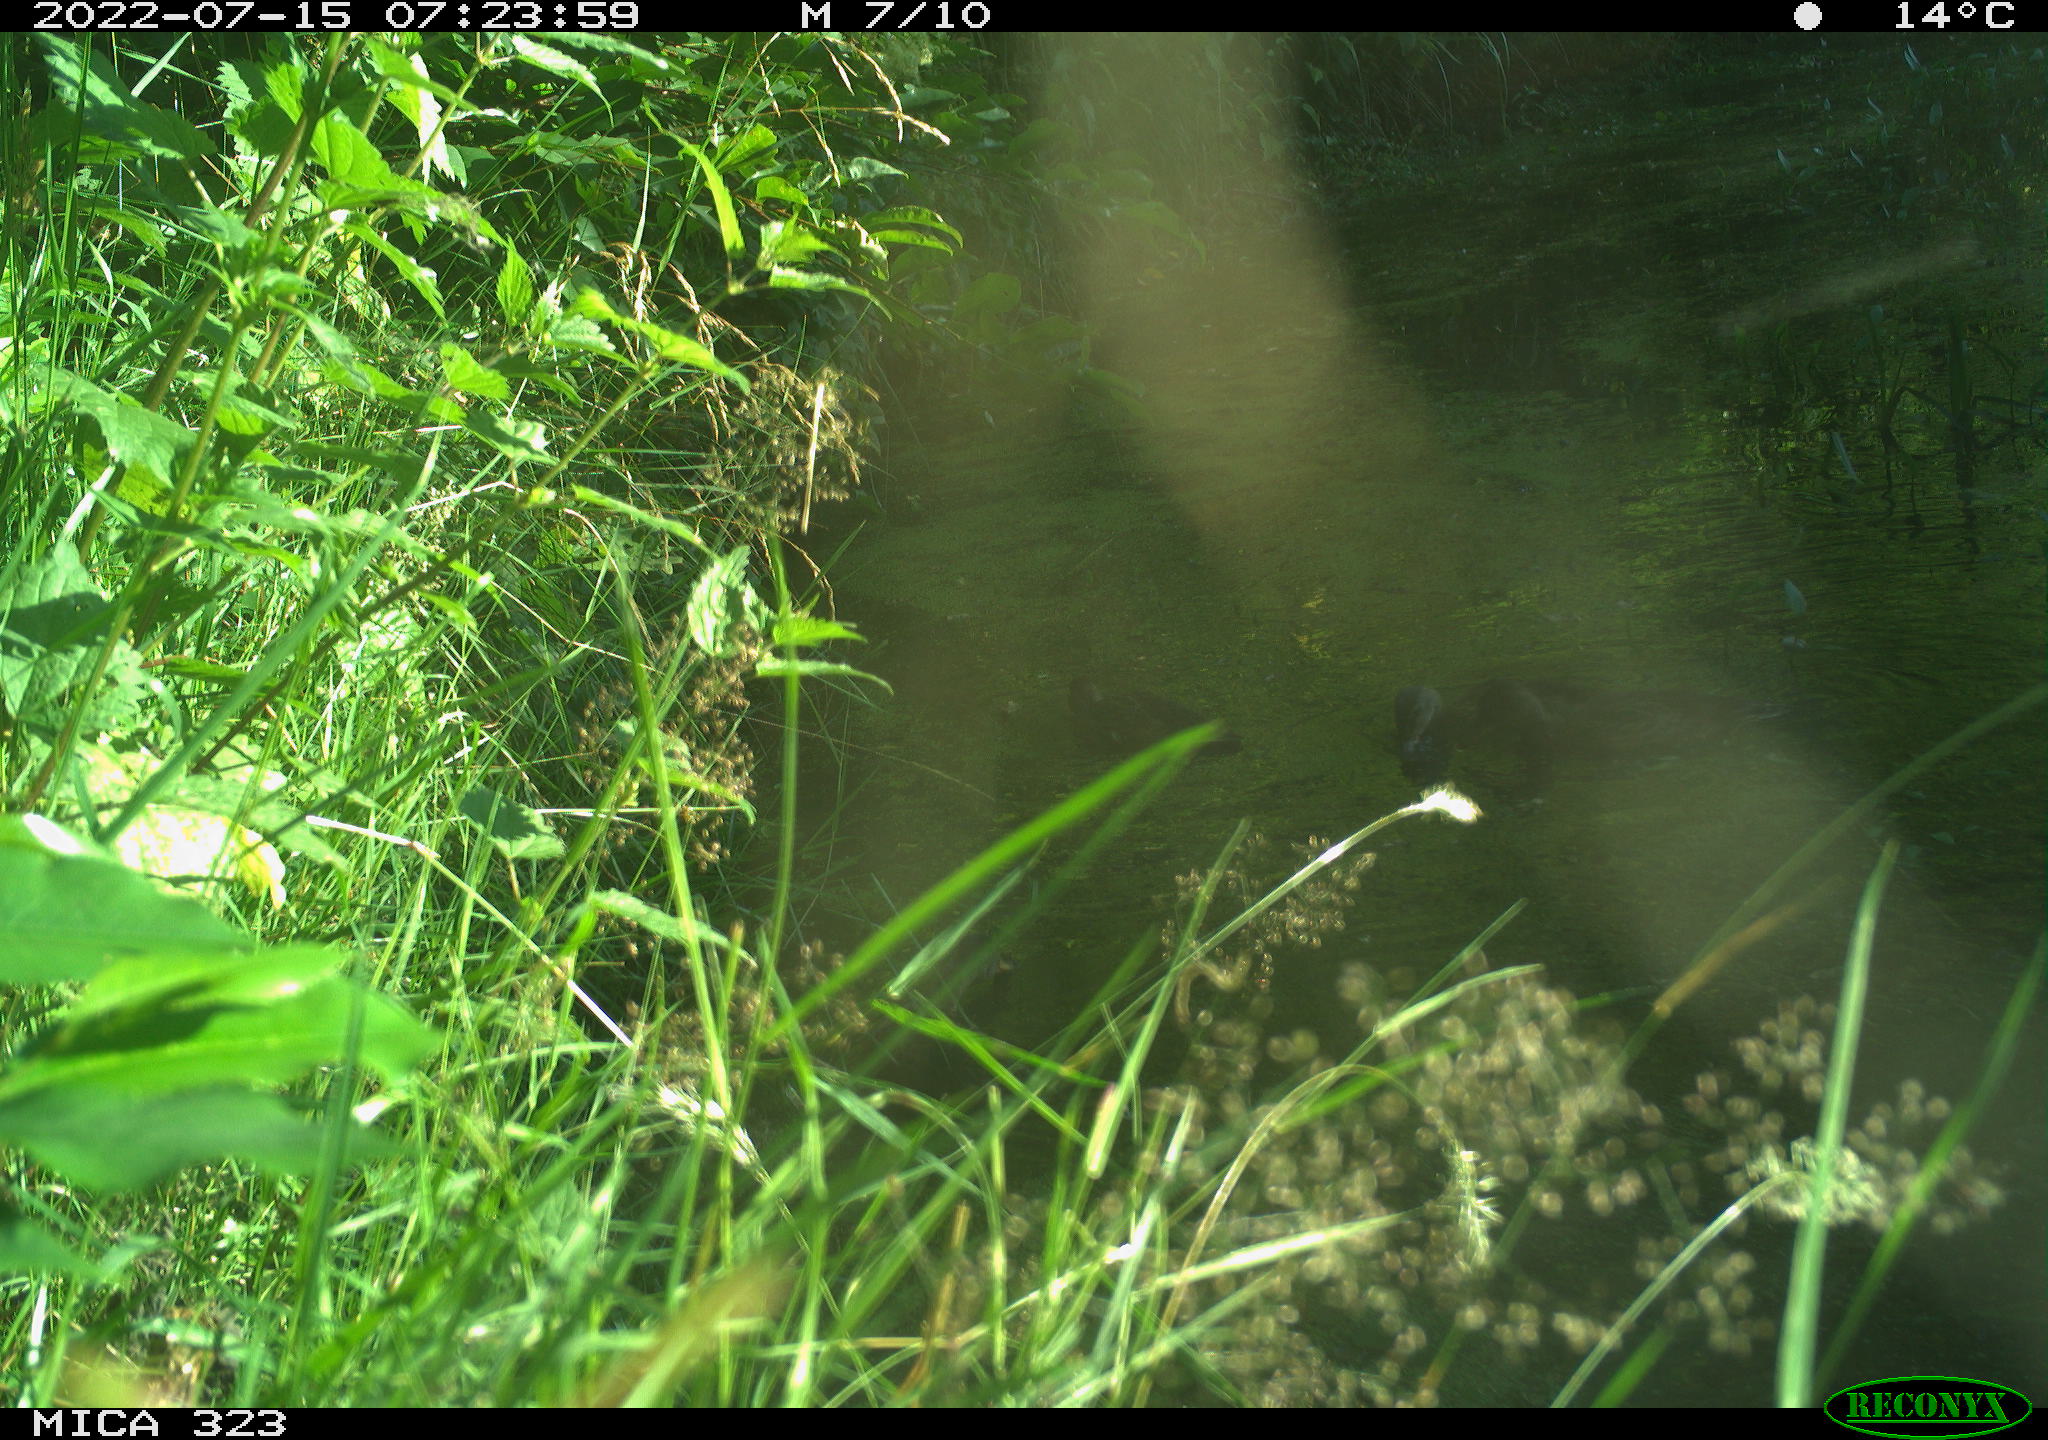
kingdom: Animalia
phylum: Chordata
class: Aves
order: Anseriformes
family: Anatidae
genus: Anas
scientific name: Anas platyrhynchos
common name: Mallard
